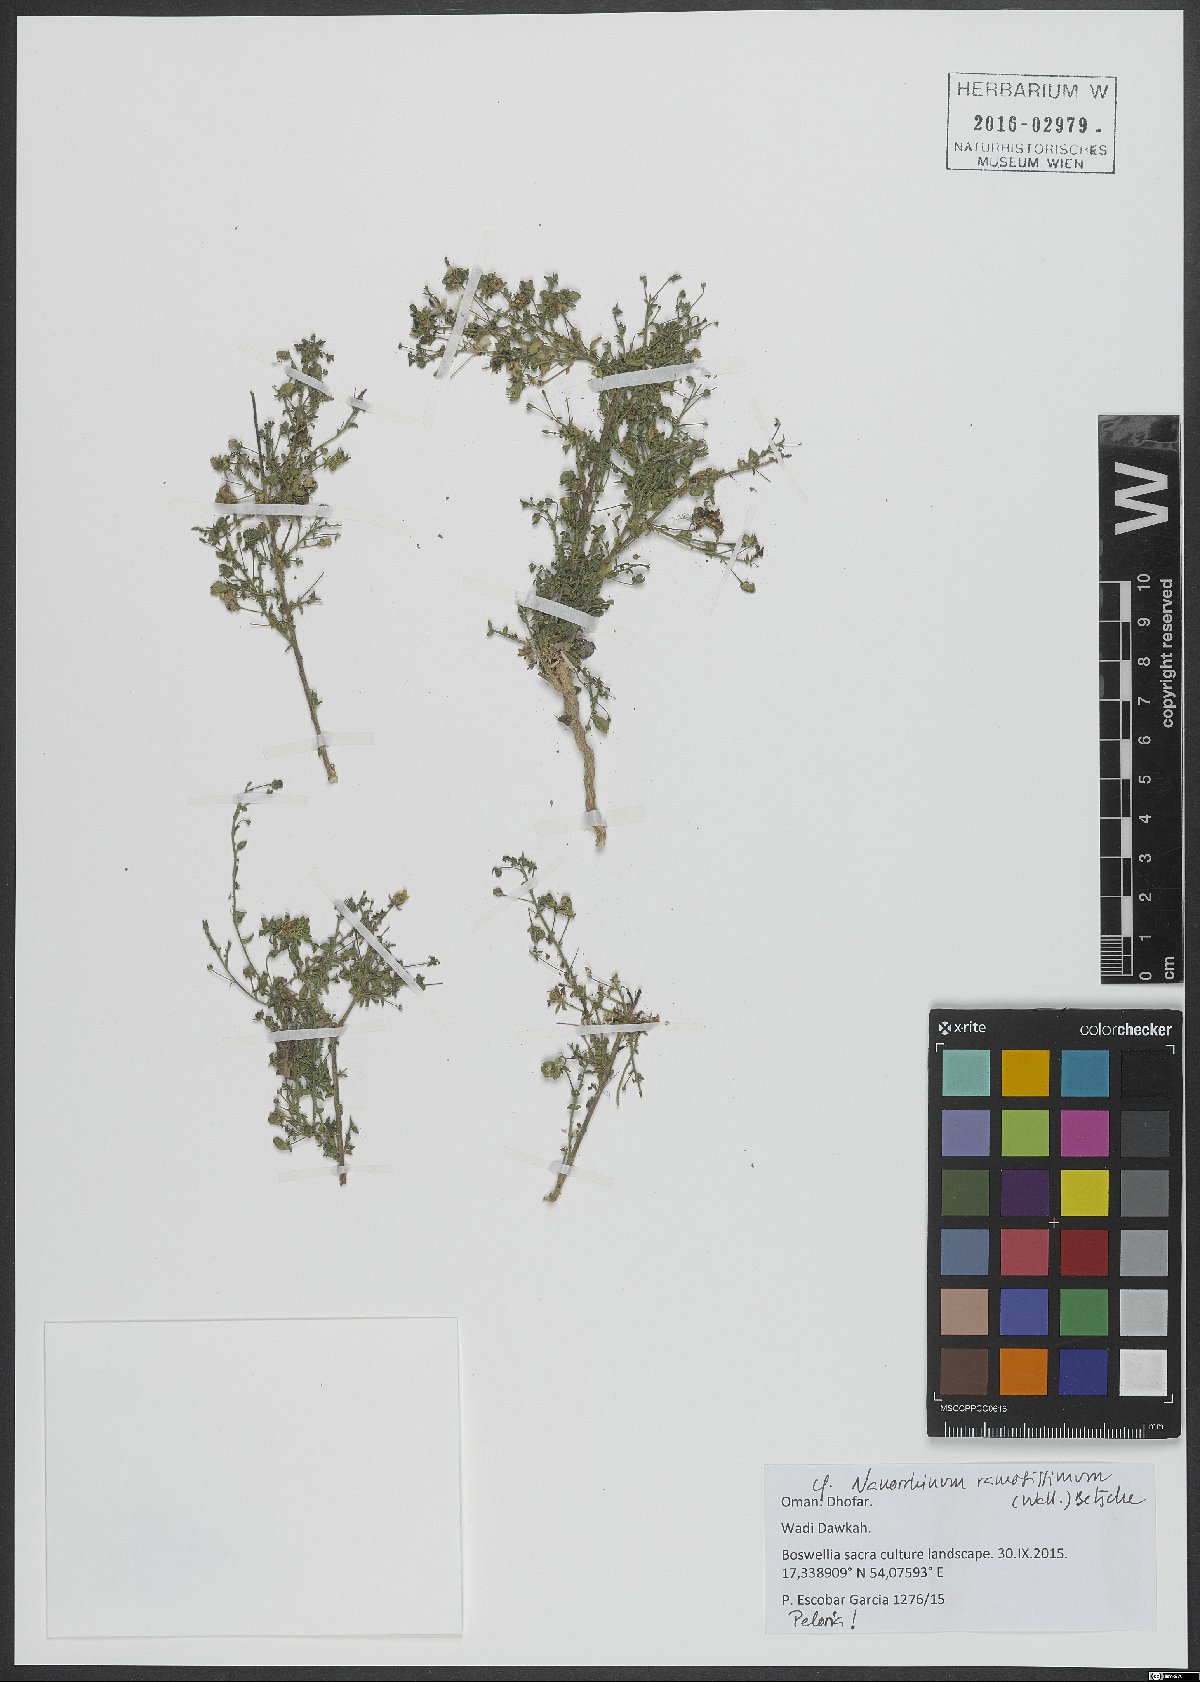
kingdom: Plantae
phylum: Tracheophyta
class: Magnoliopsida
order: Lamiales
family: Plantaginaceae
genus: Nanorrhinum
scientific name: Nanorrhinum ramosissimum
